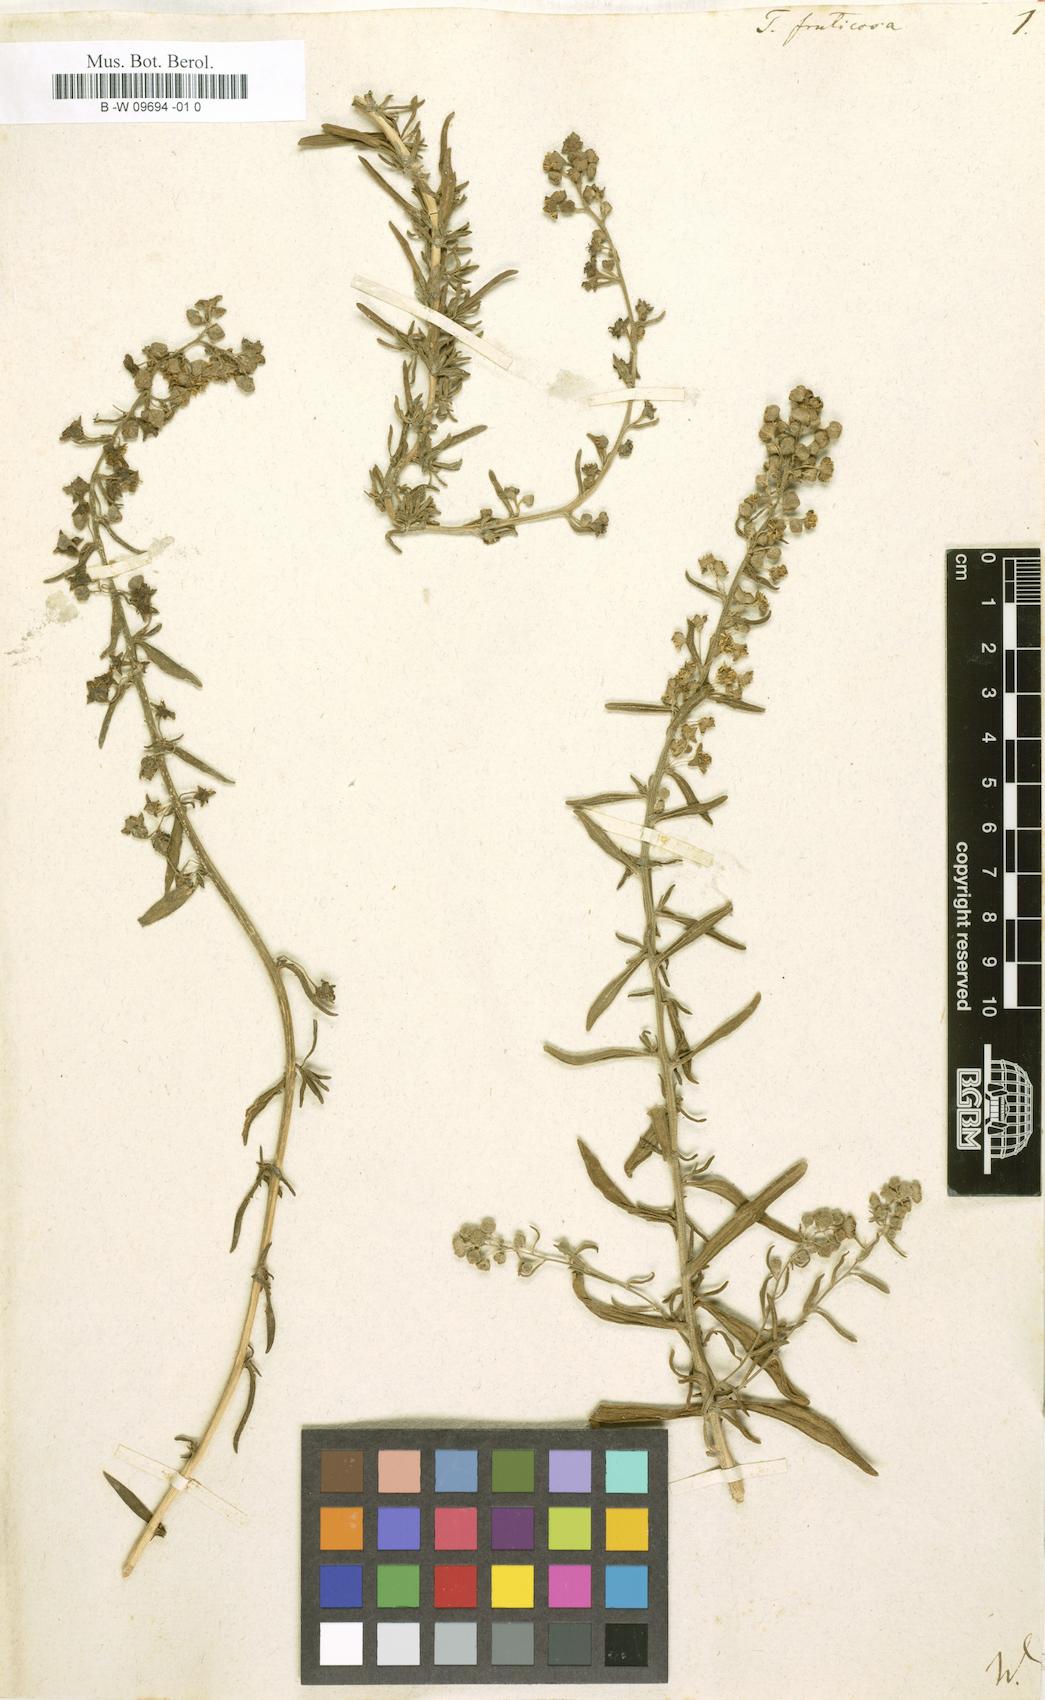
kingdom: Plantae
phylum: Tracheophyta
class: Magnoliopsida
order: Caryophyllales
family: Aizoaceae
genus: Tetragonia
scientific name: Tetragonia fruticosa
